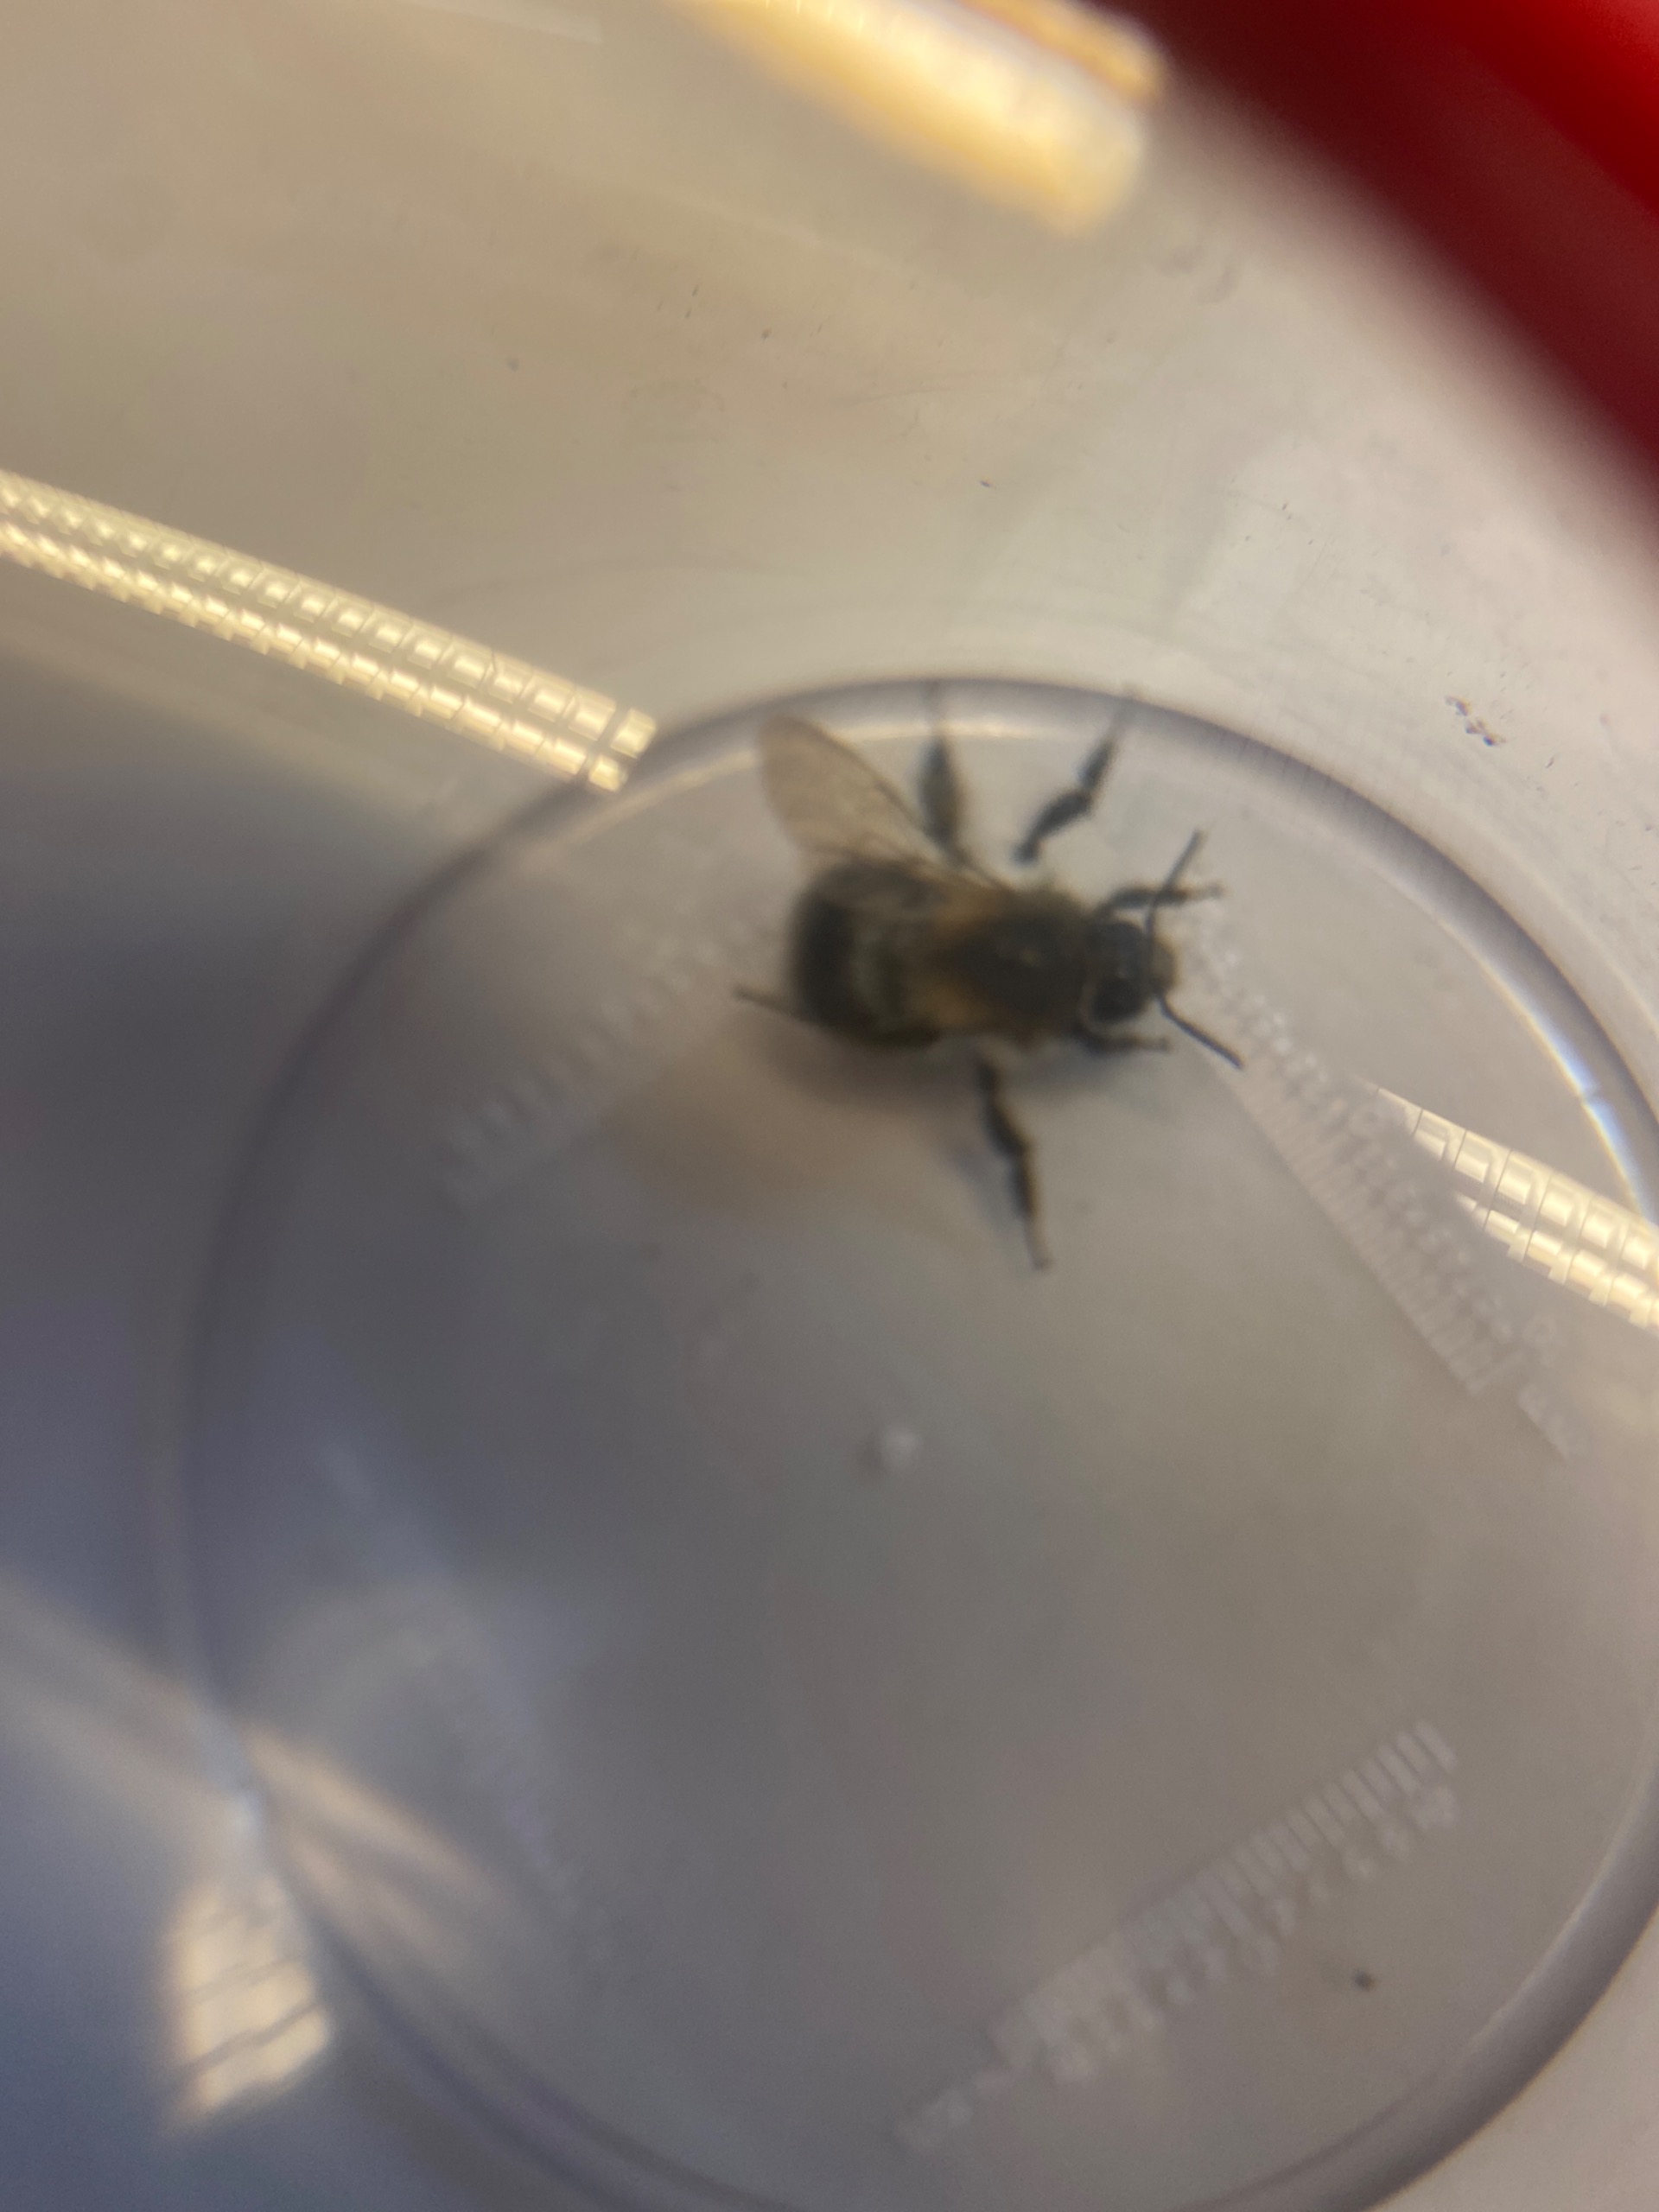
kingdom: Animalia
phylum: Arthropoda
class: Insecta
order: Hymenoptera
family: Apidae
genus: Bombus
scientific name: Bombus
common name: Humlebier
